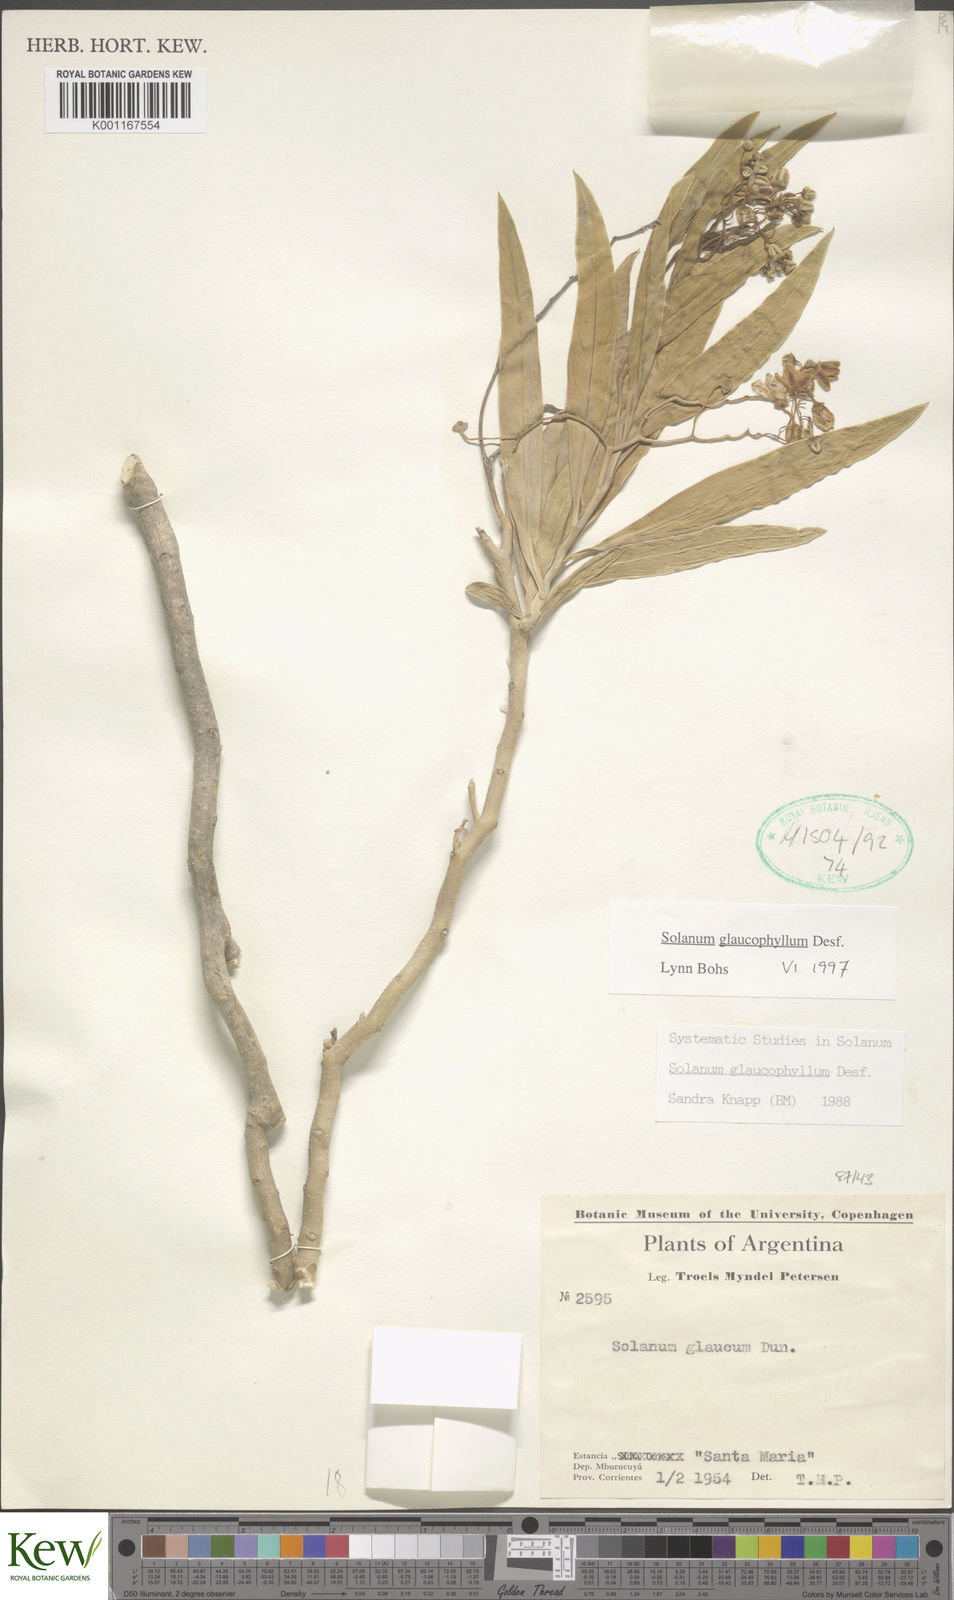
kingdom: Plantae
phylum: Tracheophyta
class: Magnoliopsida
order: Solanales
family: Solanaceae
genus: Solanum
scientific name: Solanum glaucophyllum
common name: Waxyleaf nightshade
